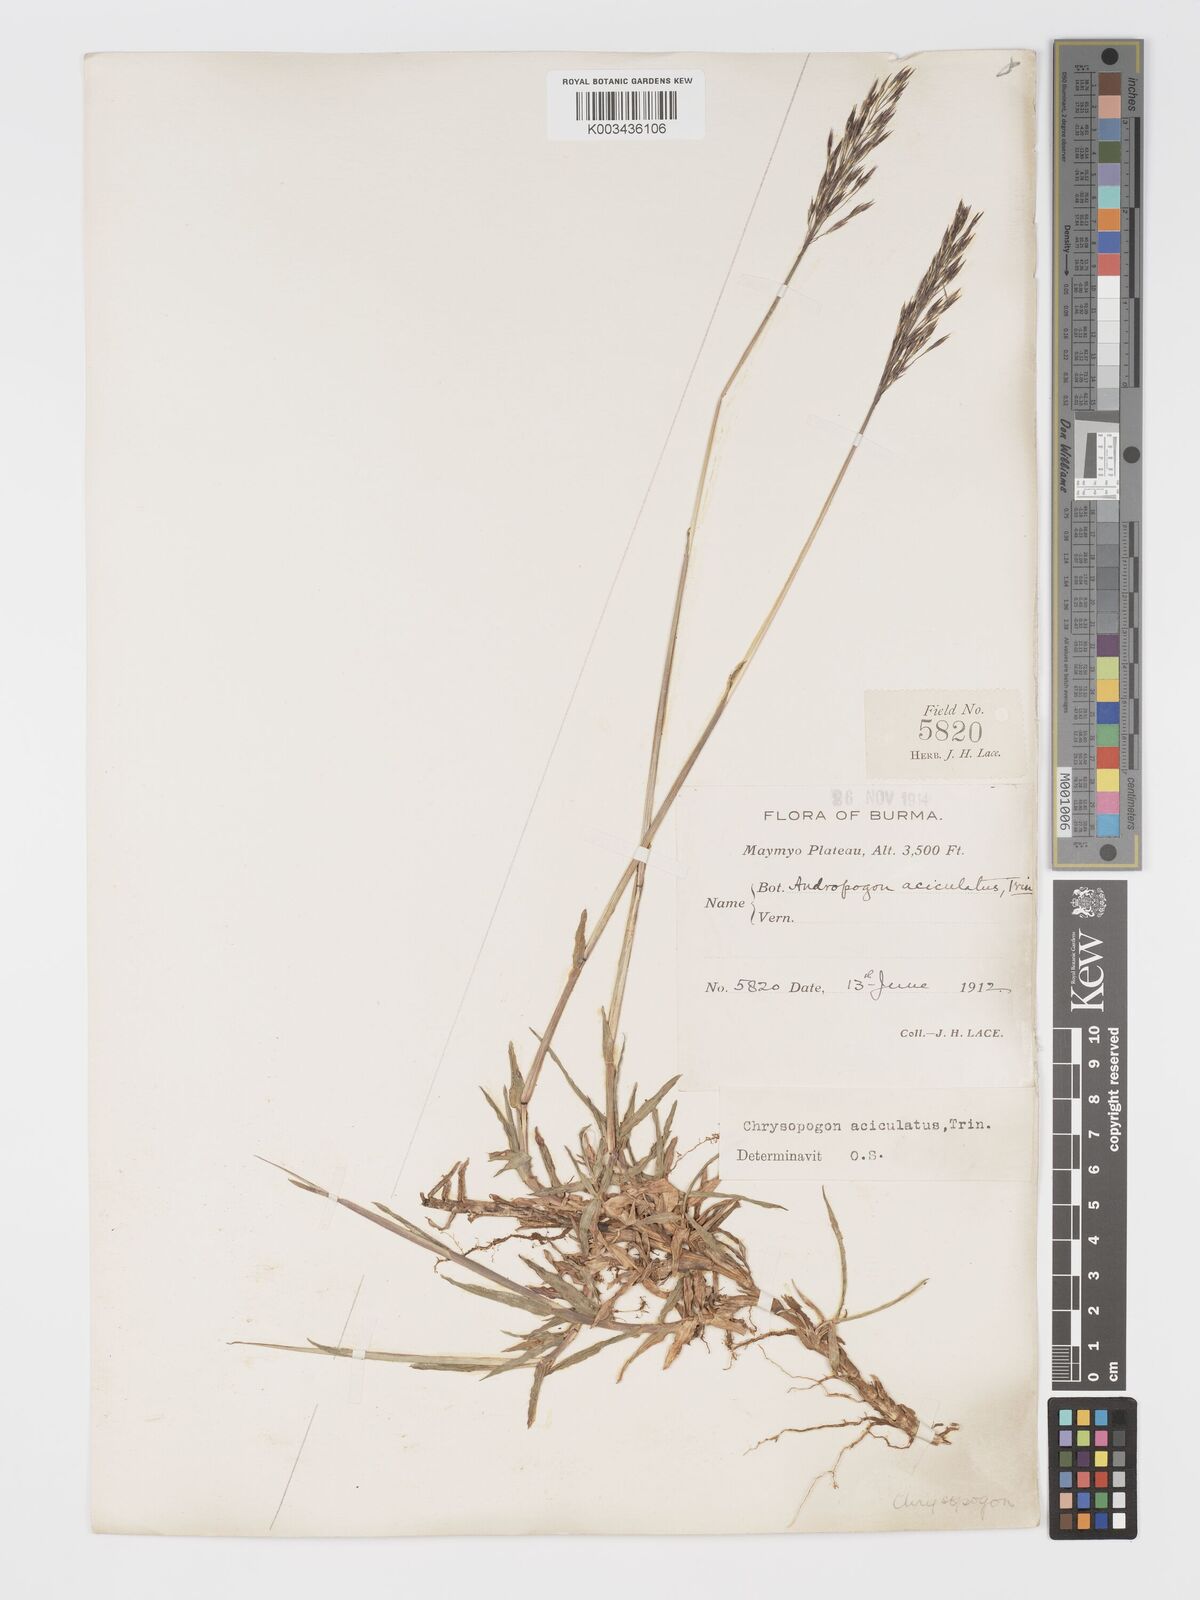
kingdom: Plantae
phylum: Tracheophyta
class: Liliopsida
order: Poales
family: Poaceae
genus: Chrysopogon
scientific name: Chrysopogon aciculatus
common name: Pilipiliula
